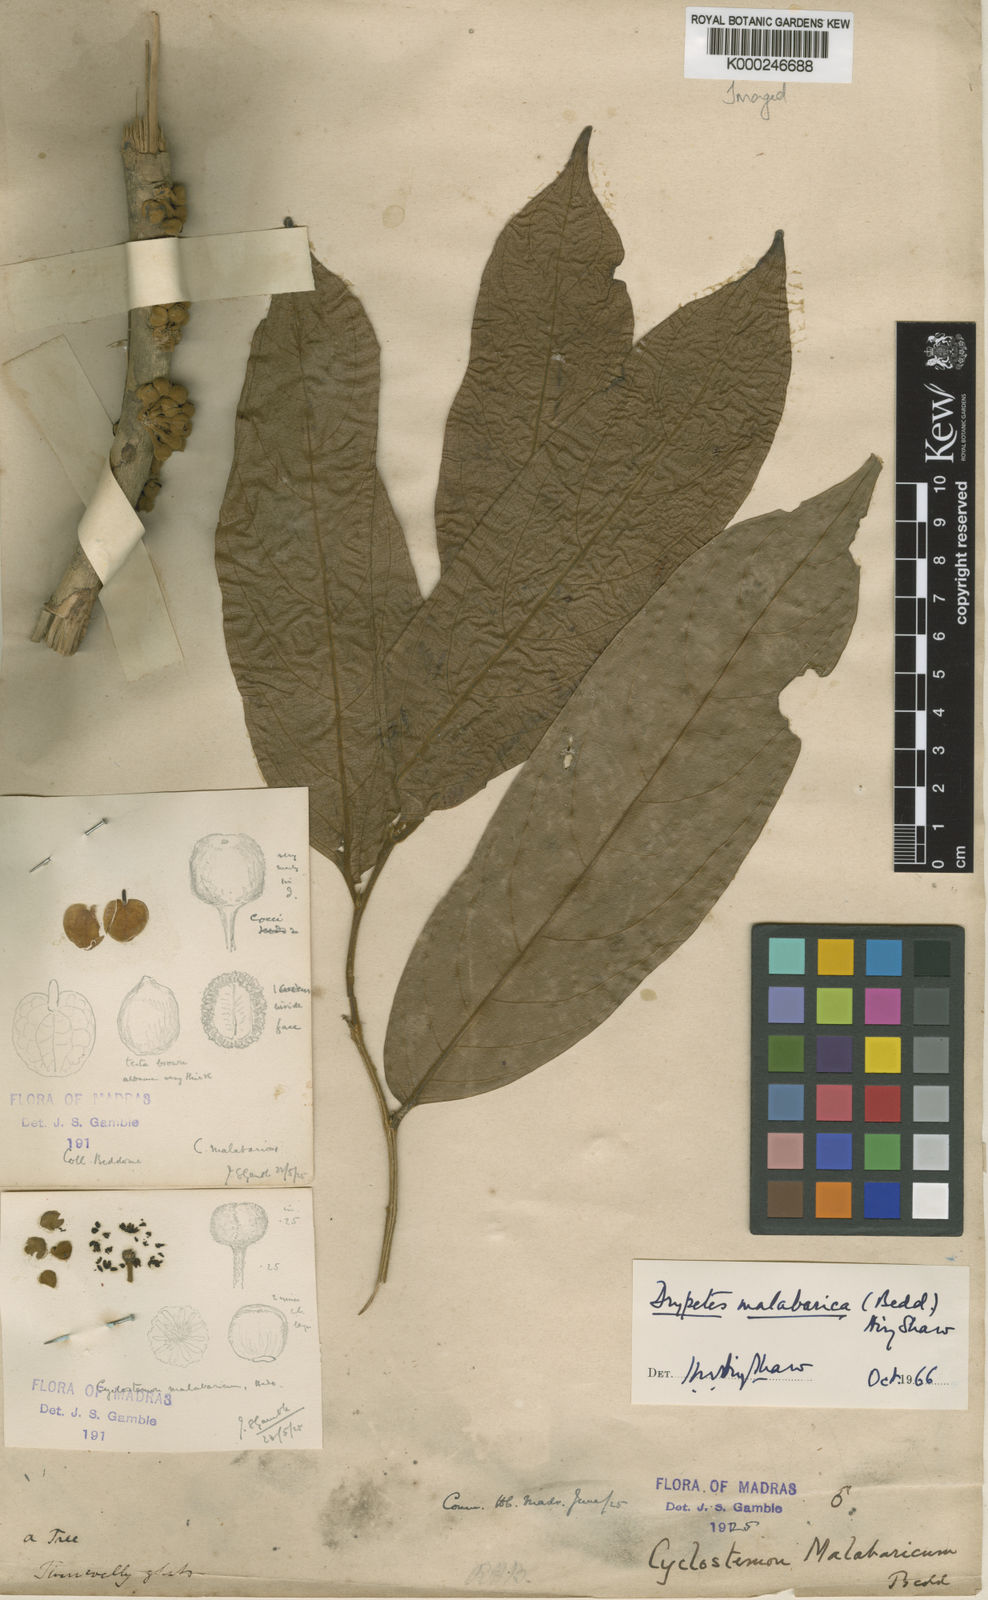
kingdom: Plantae
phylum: Tracheophyta
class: Magnoliopsida
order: Malpighiales
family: Putranjivaceae
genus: Drypetes
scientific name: Drypetes malabarica
